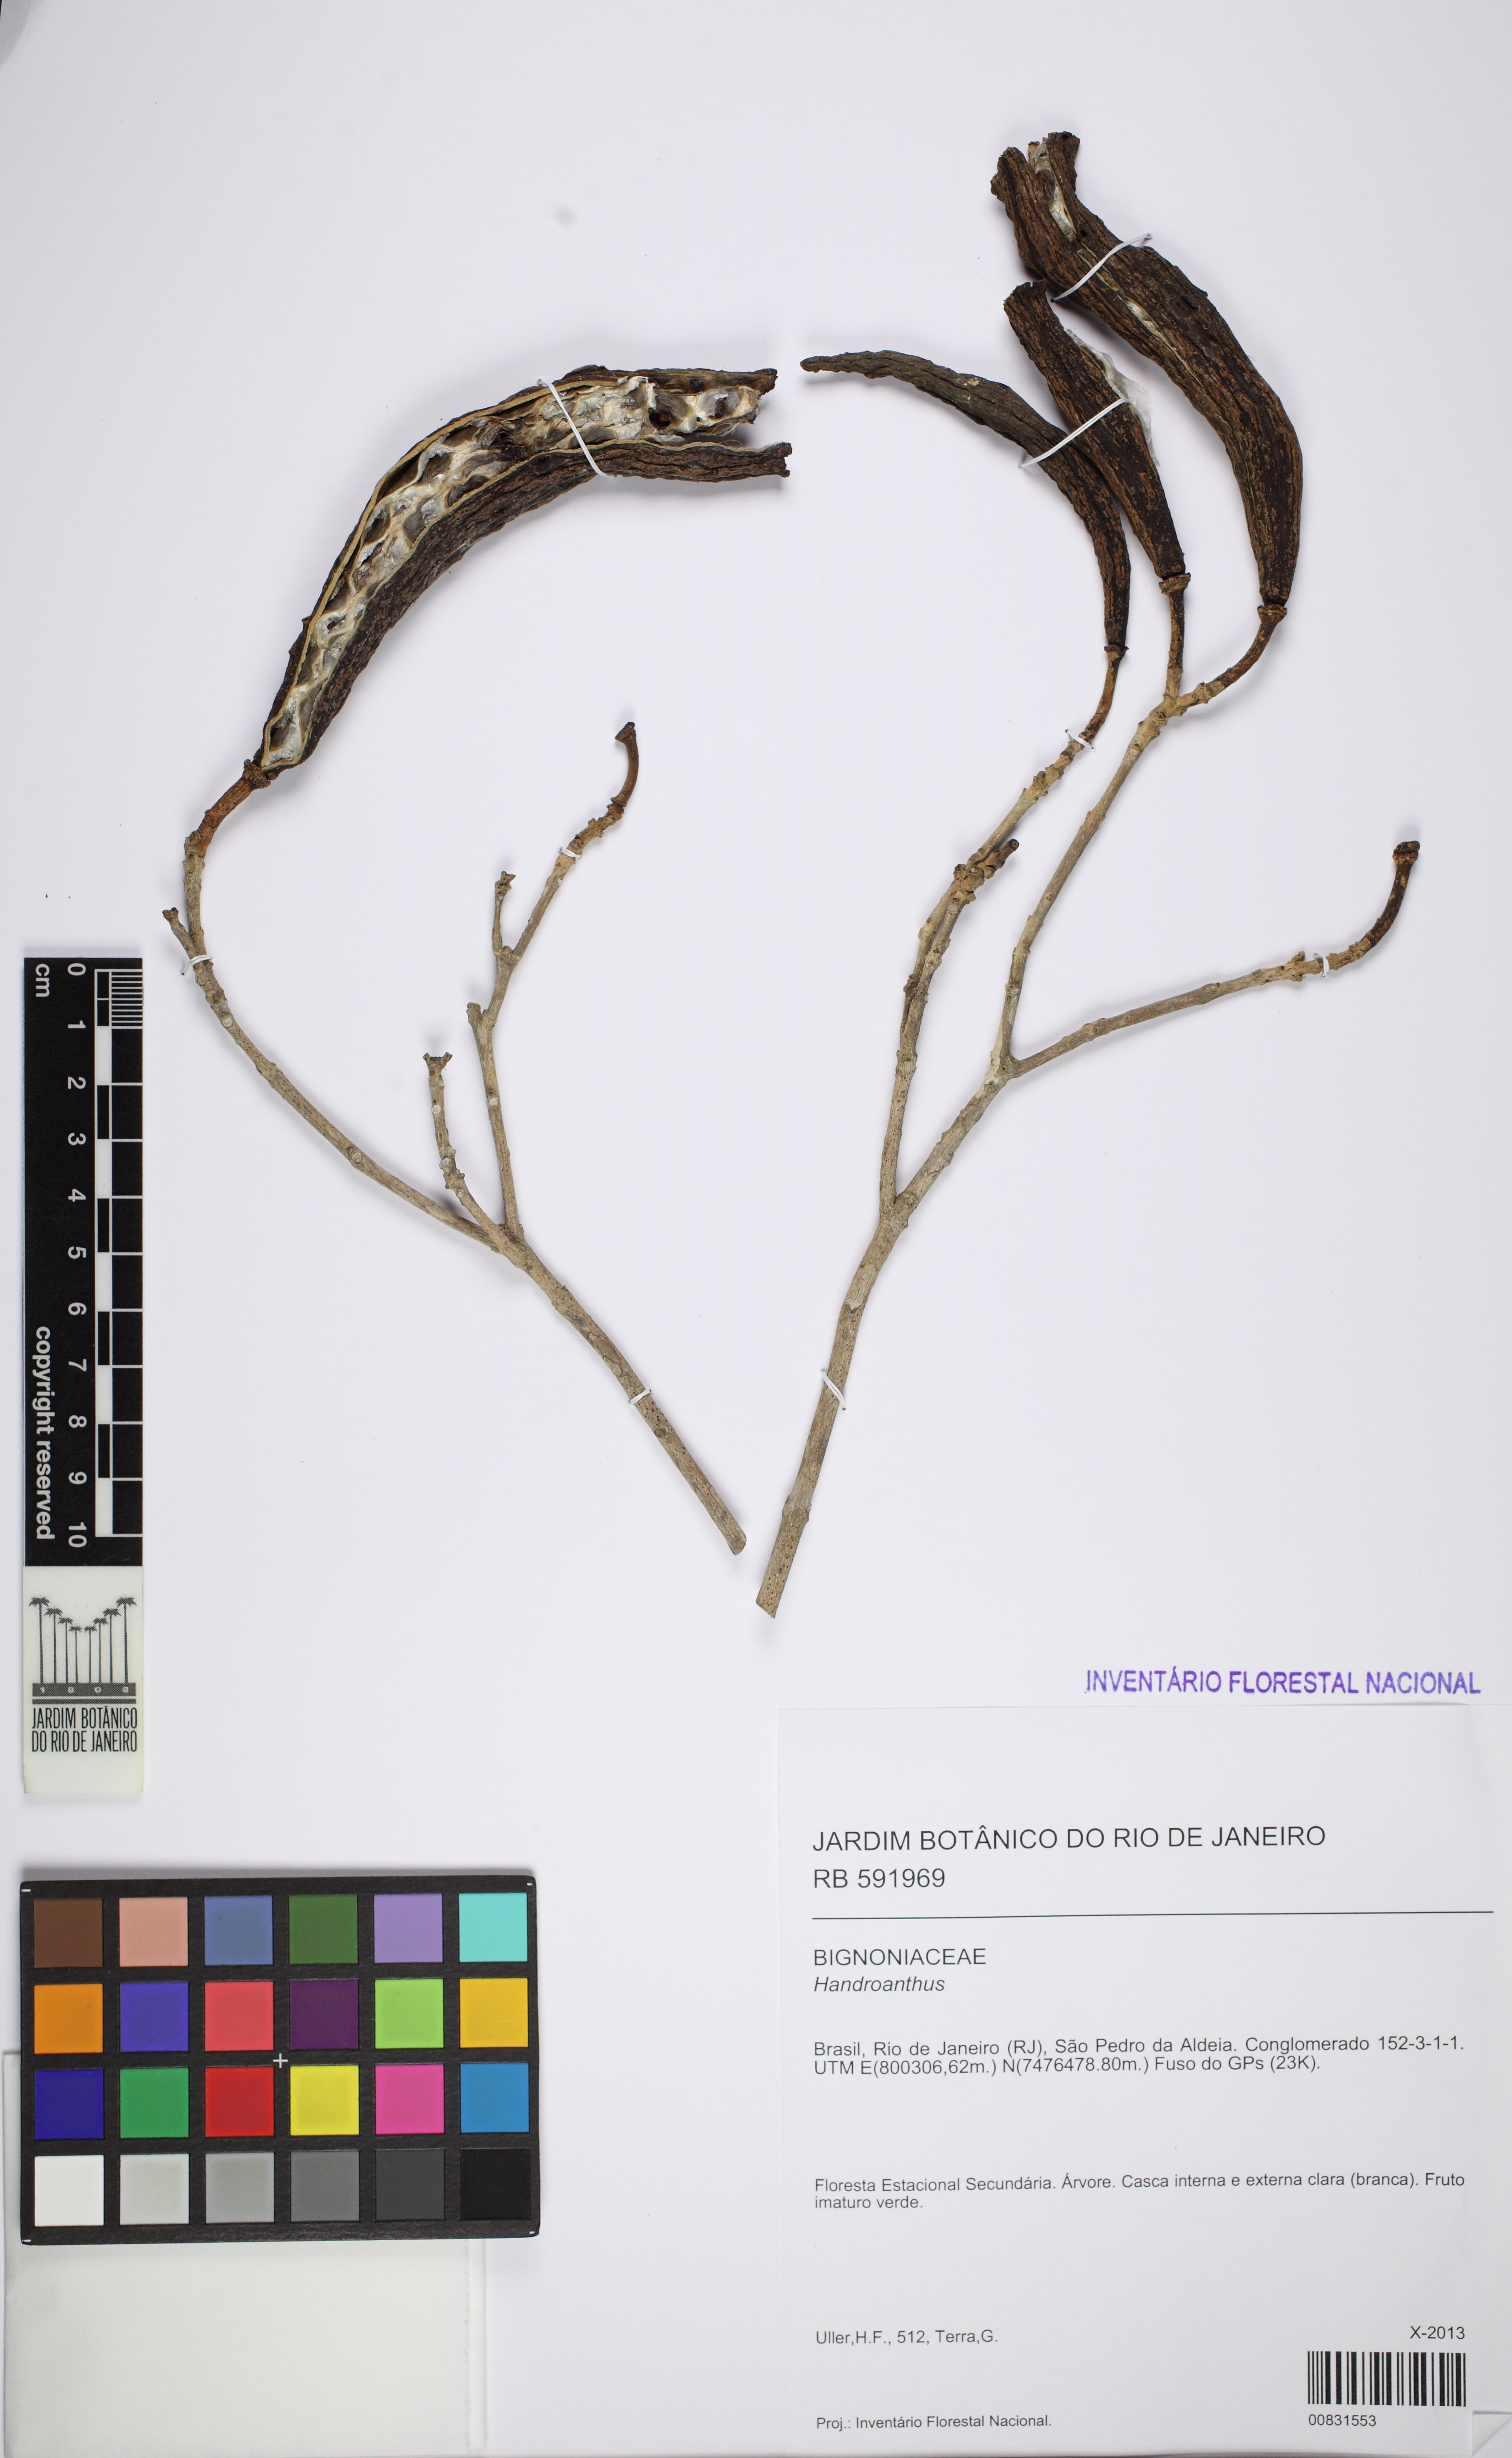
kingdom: Plantae
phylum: Tracheophyta
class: Magnoliopsida
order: Lamiales
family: Bignoniaceae
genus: Handroanthus
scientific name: Handroanthus
